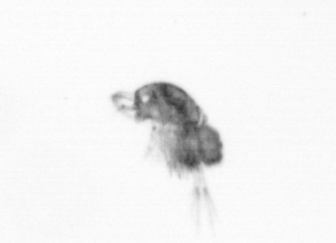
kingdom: Animalia
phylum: Arthropoda
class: Copepoda
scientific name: Copepoda
